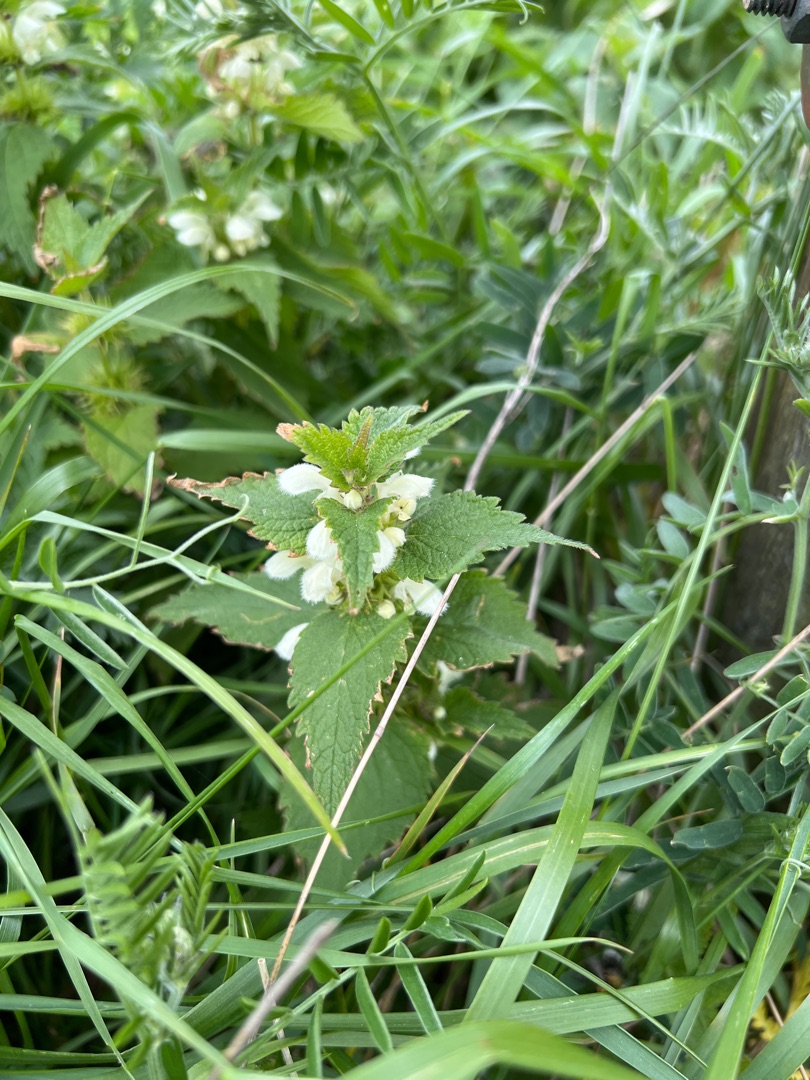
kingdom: Plantae
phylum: Tracheophyta
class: Magnoliopsida
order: Lamiales
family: Lamiaceae
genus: Lamium
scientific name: Lamium album
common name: Døvnælde
